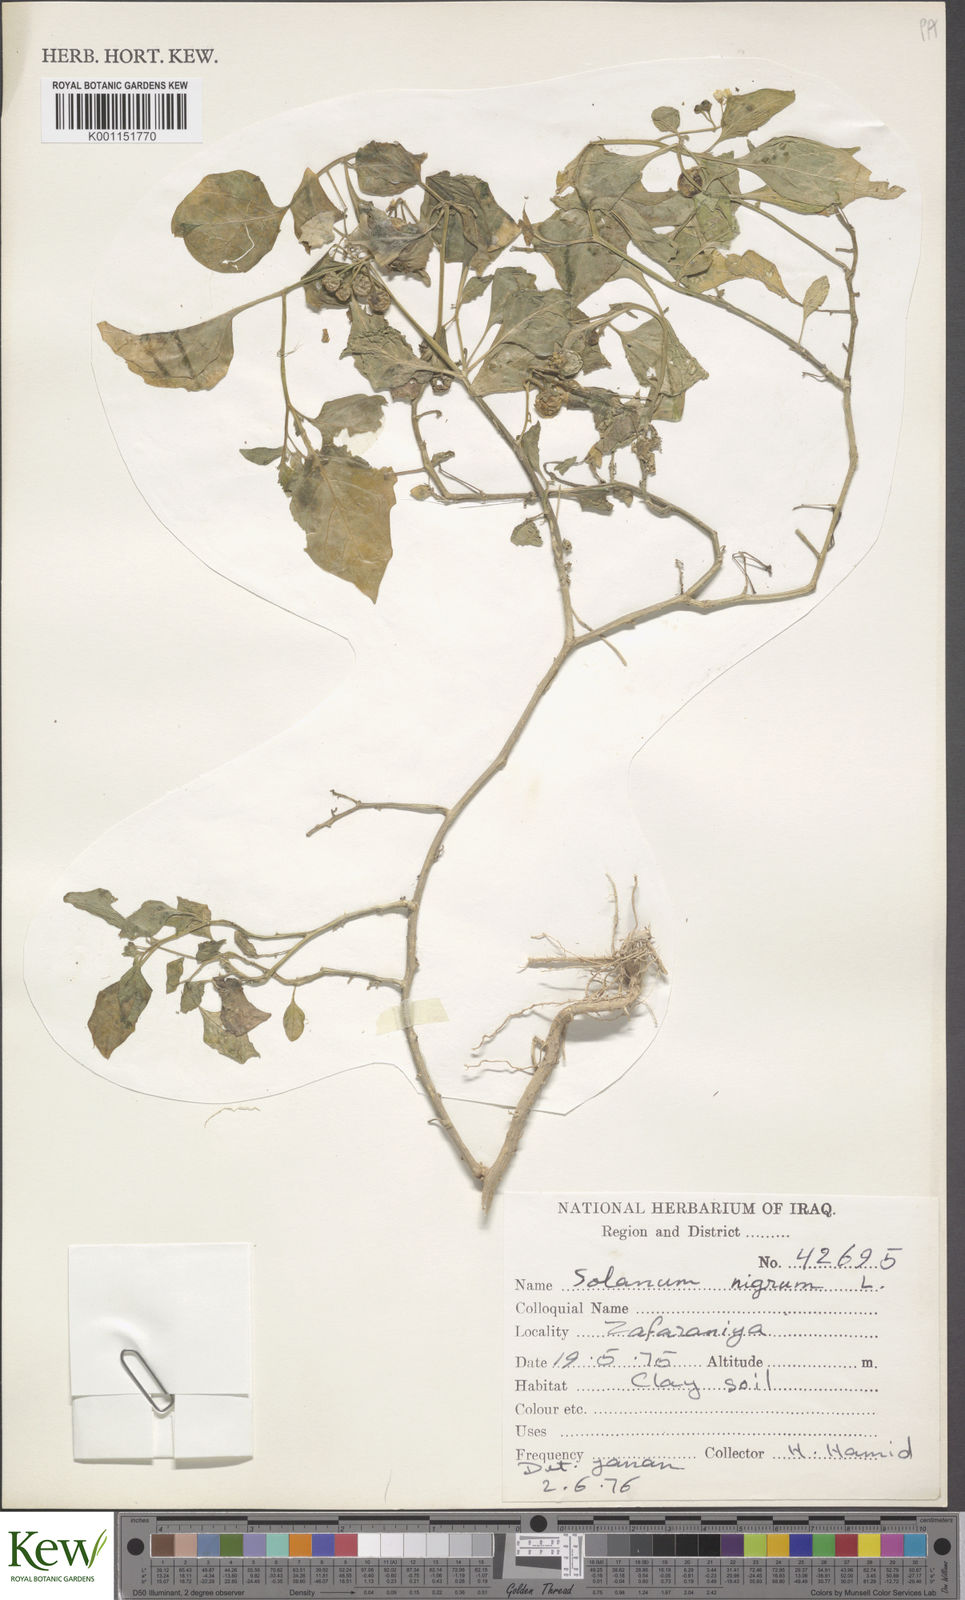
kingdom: Plantae
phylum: Tracheophyta
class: Magnoliopsida
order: Solanales
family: Solanaceae
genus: Solanum
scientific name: Solanum villosum
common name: Red nightshade
